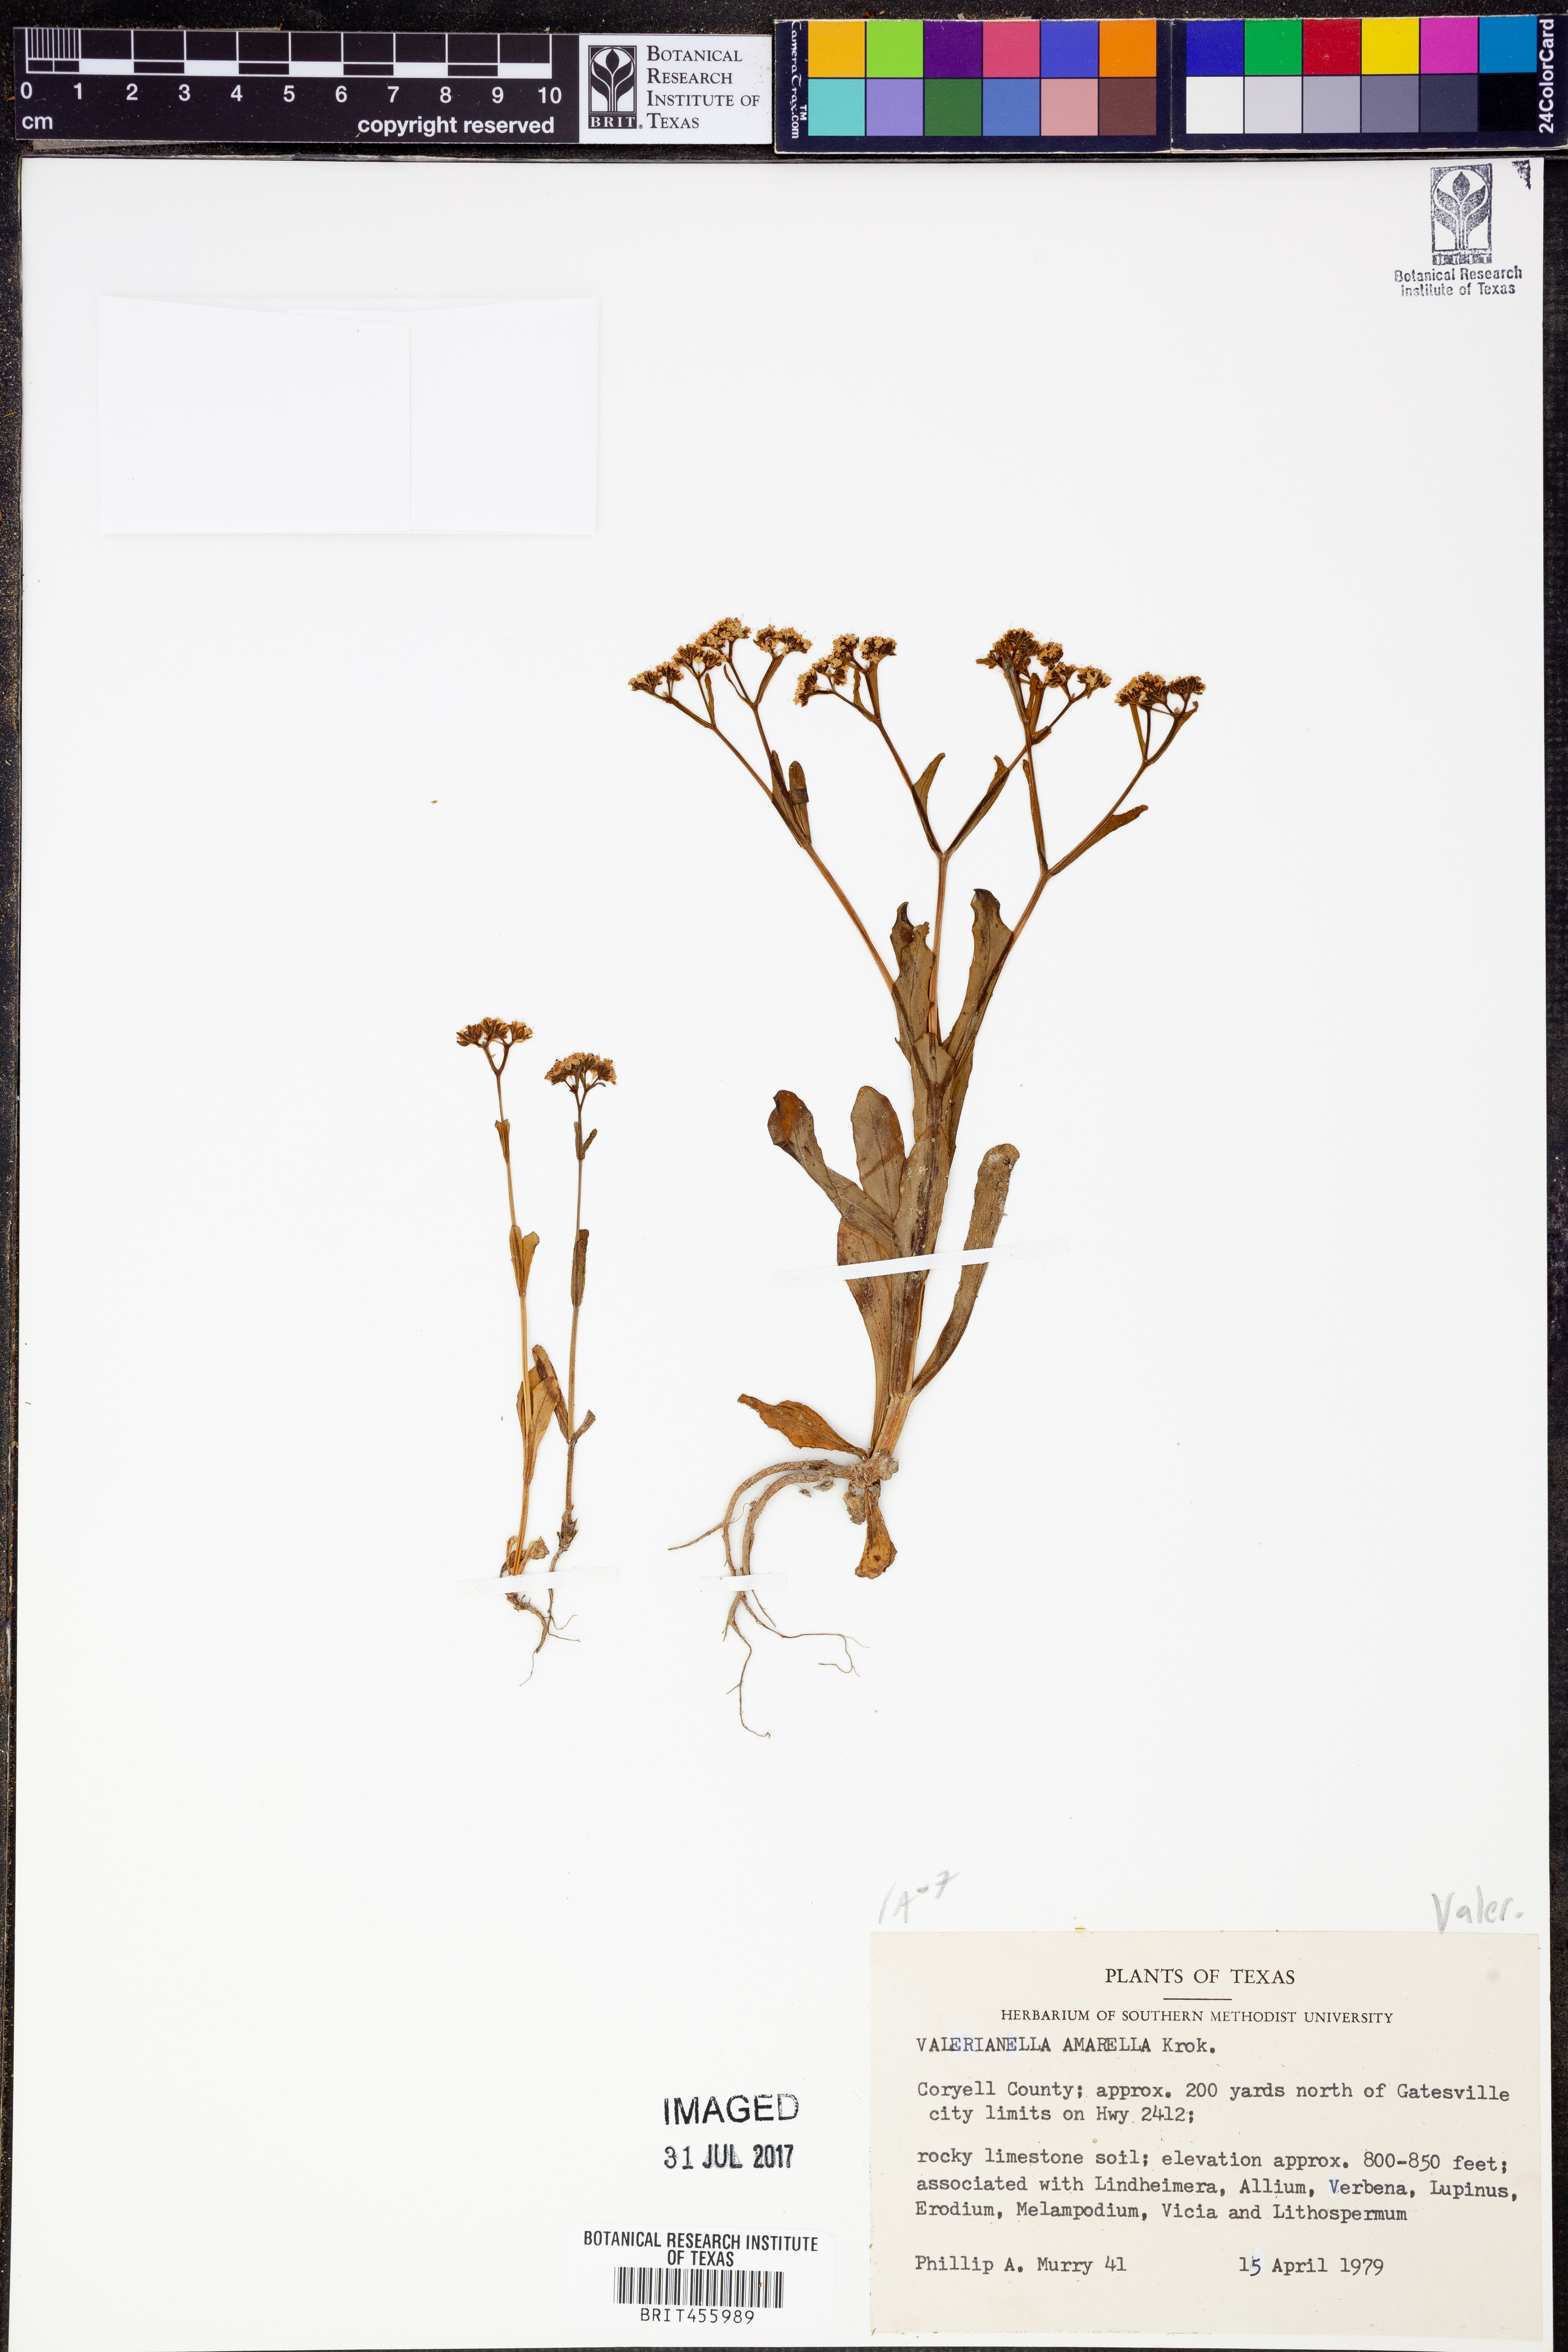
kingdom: Plantae
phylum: Tracheophyta
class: Magnoliopsida
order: Dipsacales
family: Caprifoliaceae
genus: Valerianella
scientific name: Valerianella amarella
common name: Hariy cornsalad
